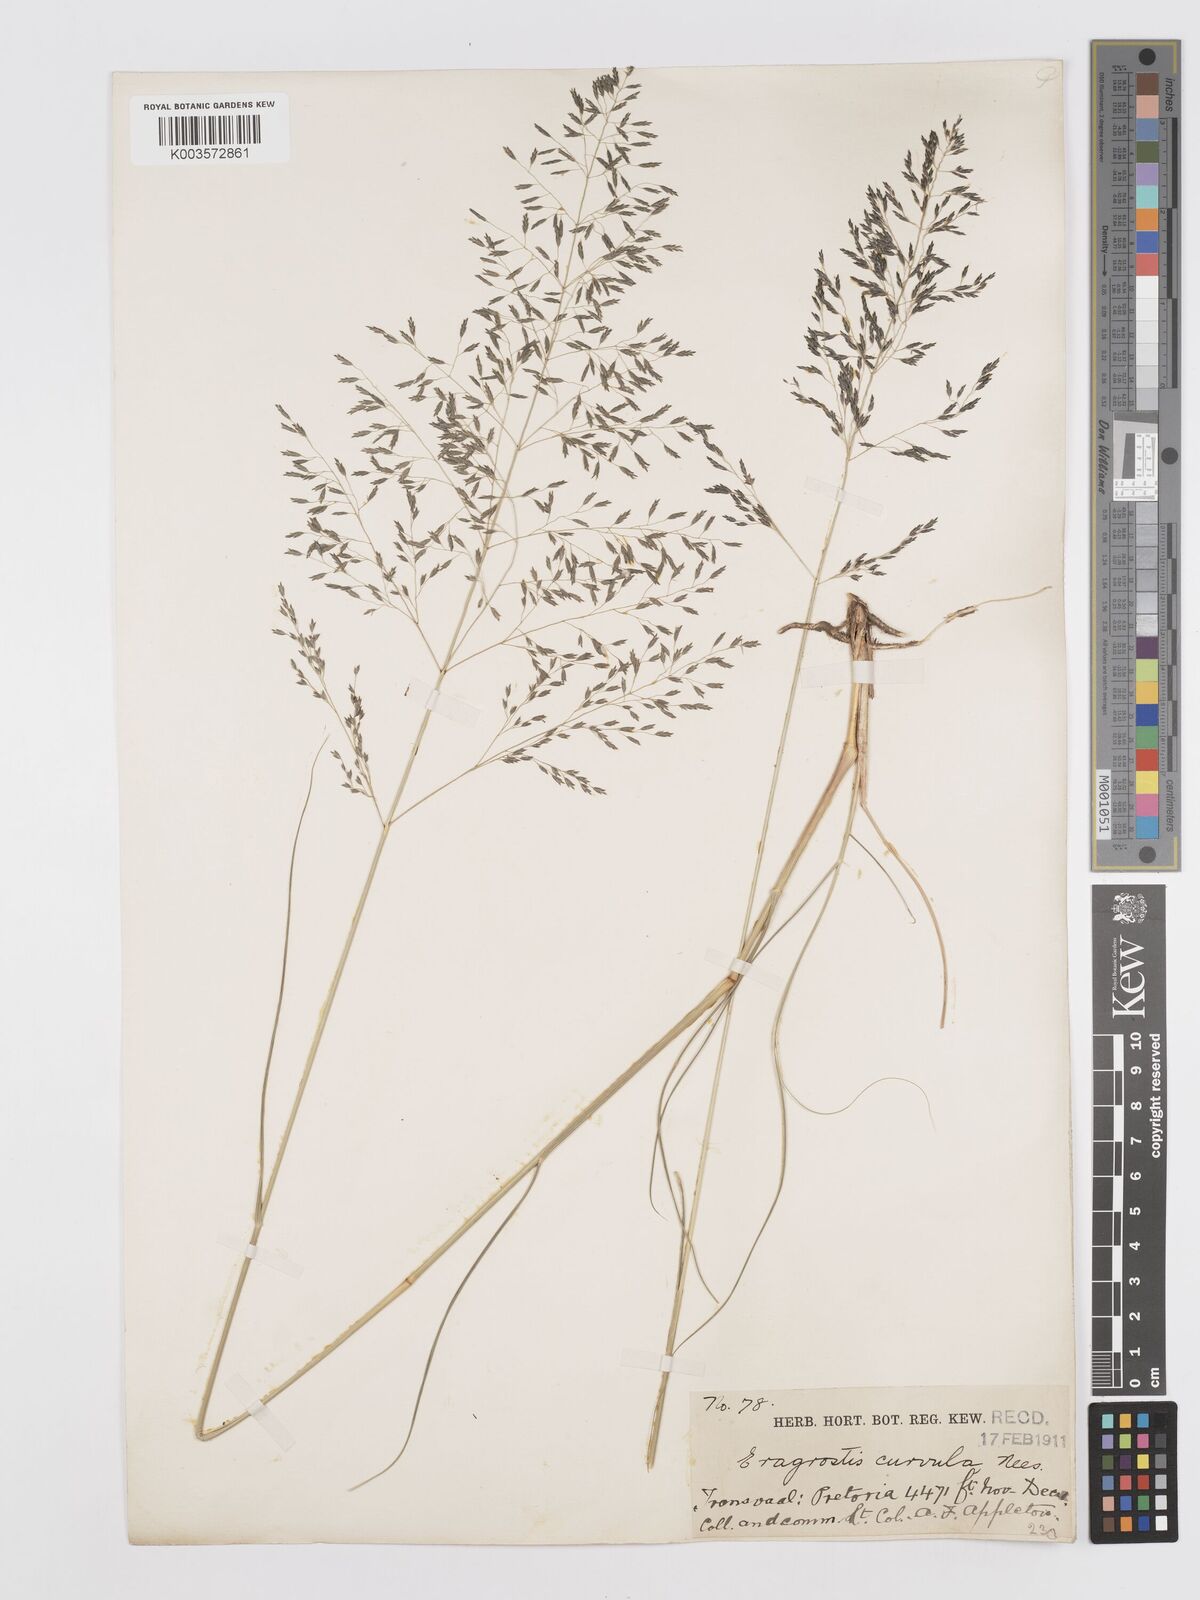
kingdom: Plantae
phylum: Tracheophyta
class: Liliopsida
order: Poales
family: Poaceae
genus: Eragrostis
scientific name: Eragrostis curvula
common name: African love-grass
